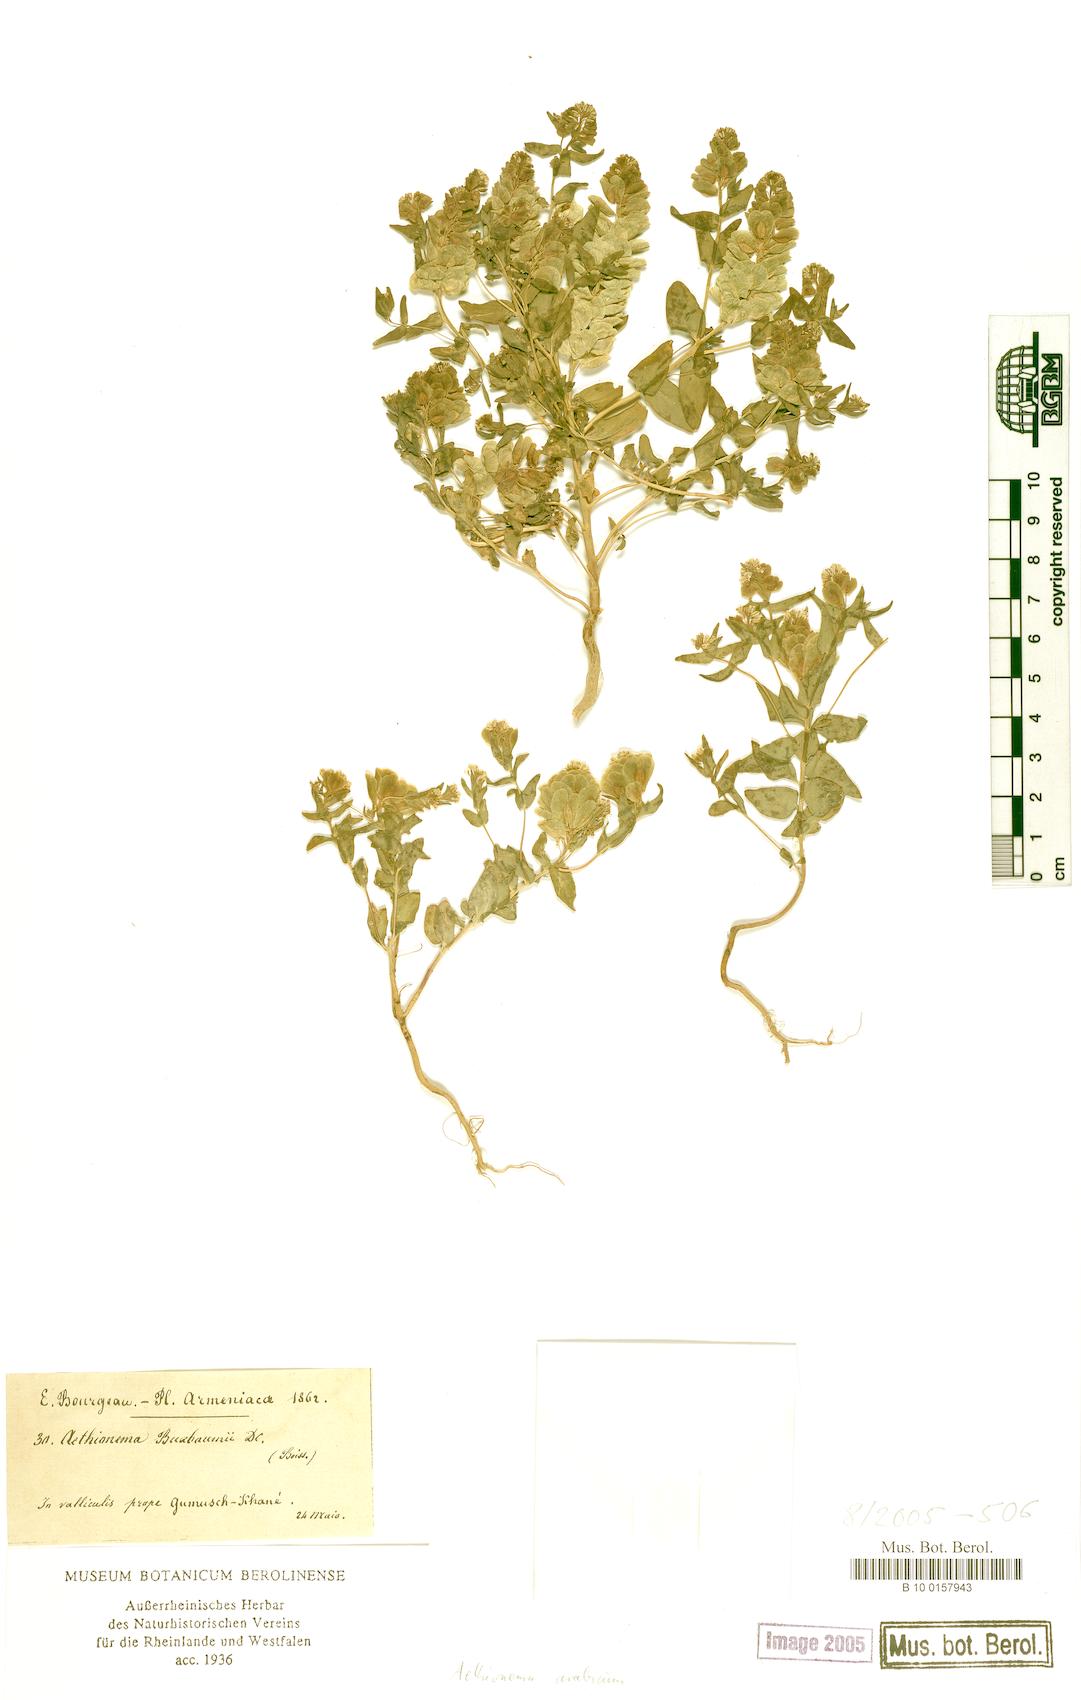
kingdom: Plantae
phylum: Tracheophyta
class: Magnoliopsida
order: Brassicales
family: Brassicaceae
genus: Aethionema
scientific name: Aethionema arabicum
